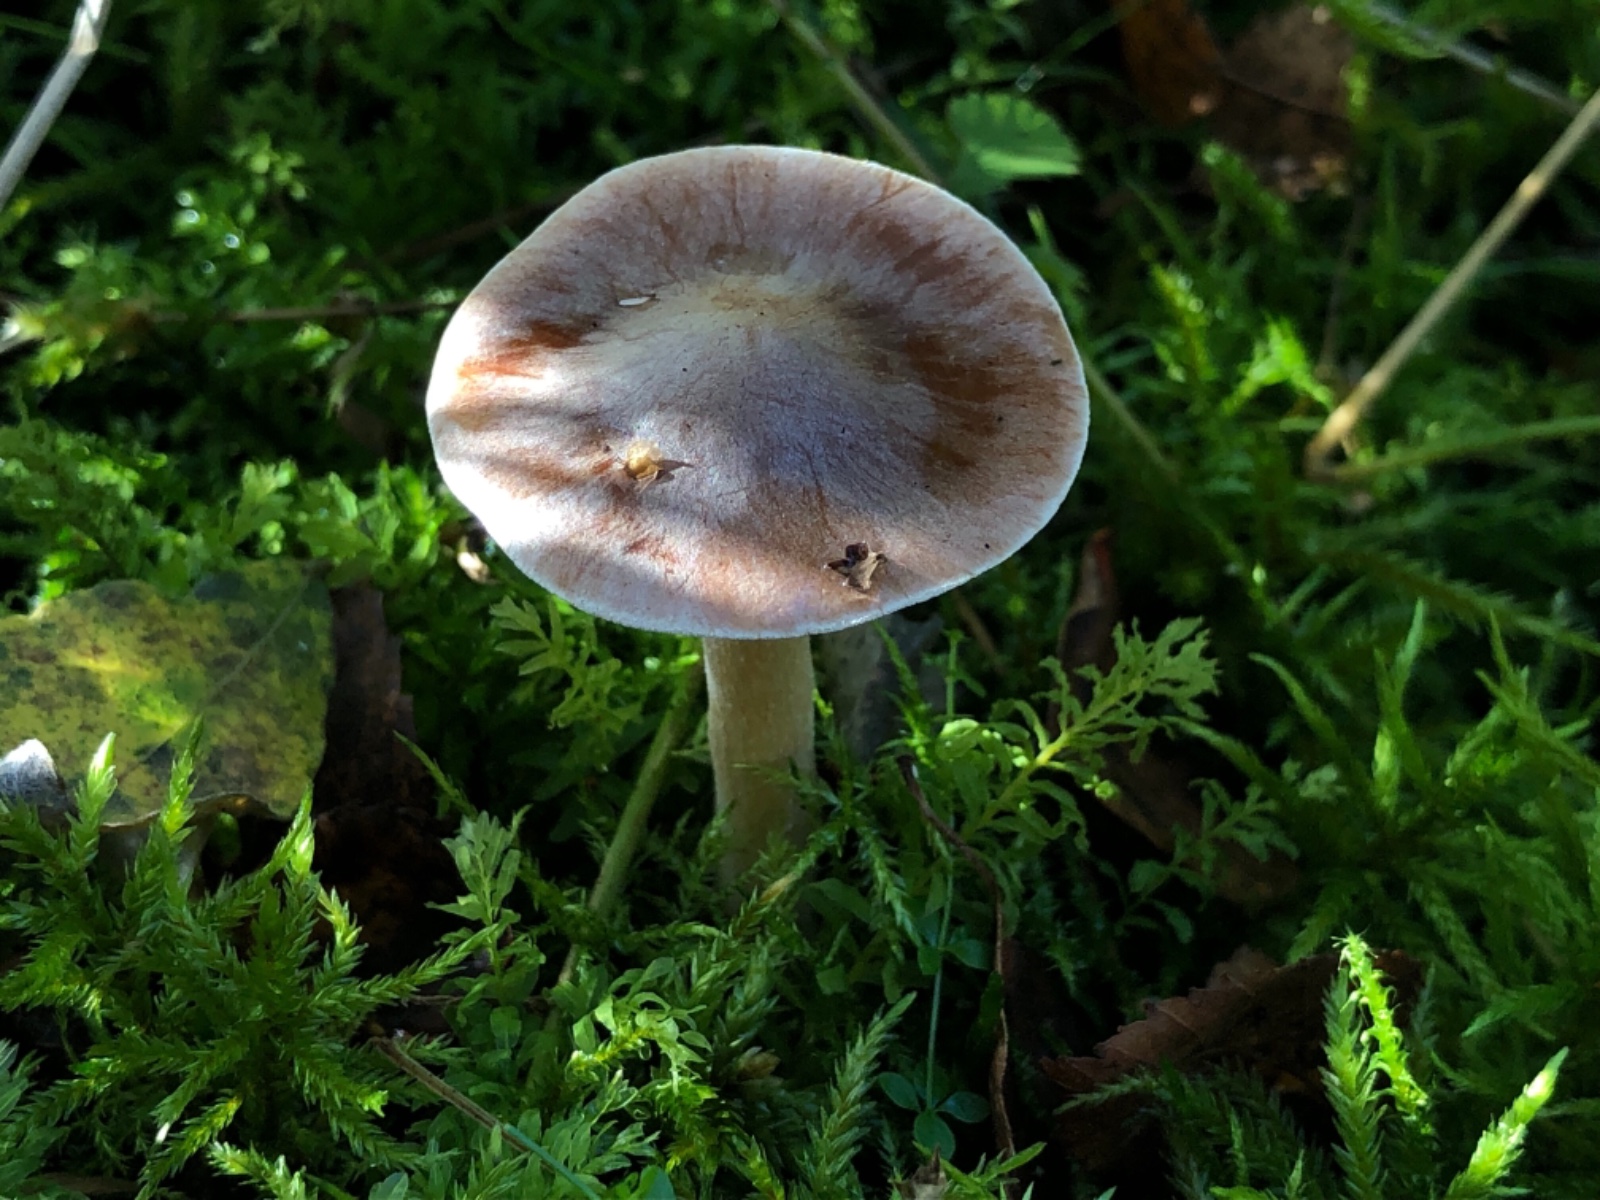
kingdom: Fungi
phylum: Basidiomycota
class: Agaricomycetes
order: Agaricales
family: Hymenogastraceae
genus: Hebeloma
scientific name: Hebeloma
